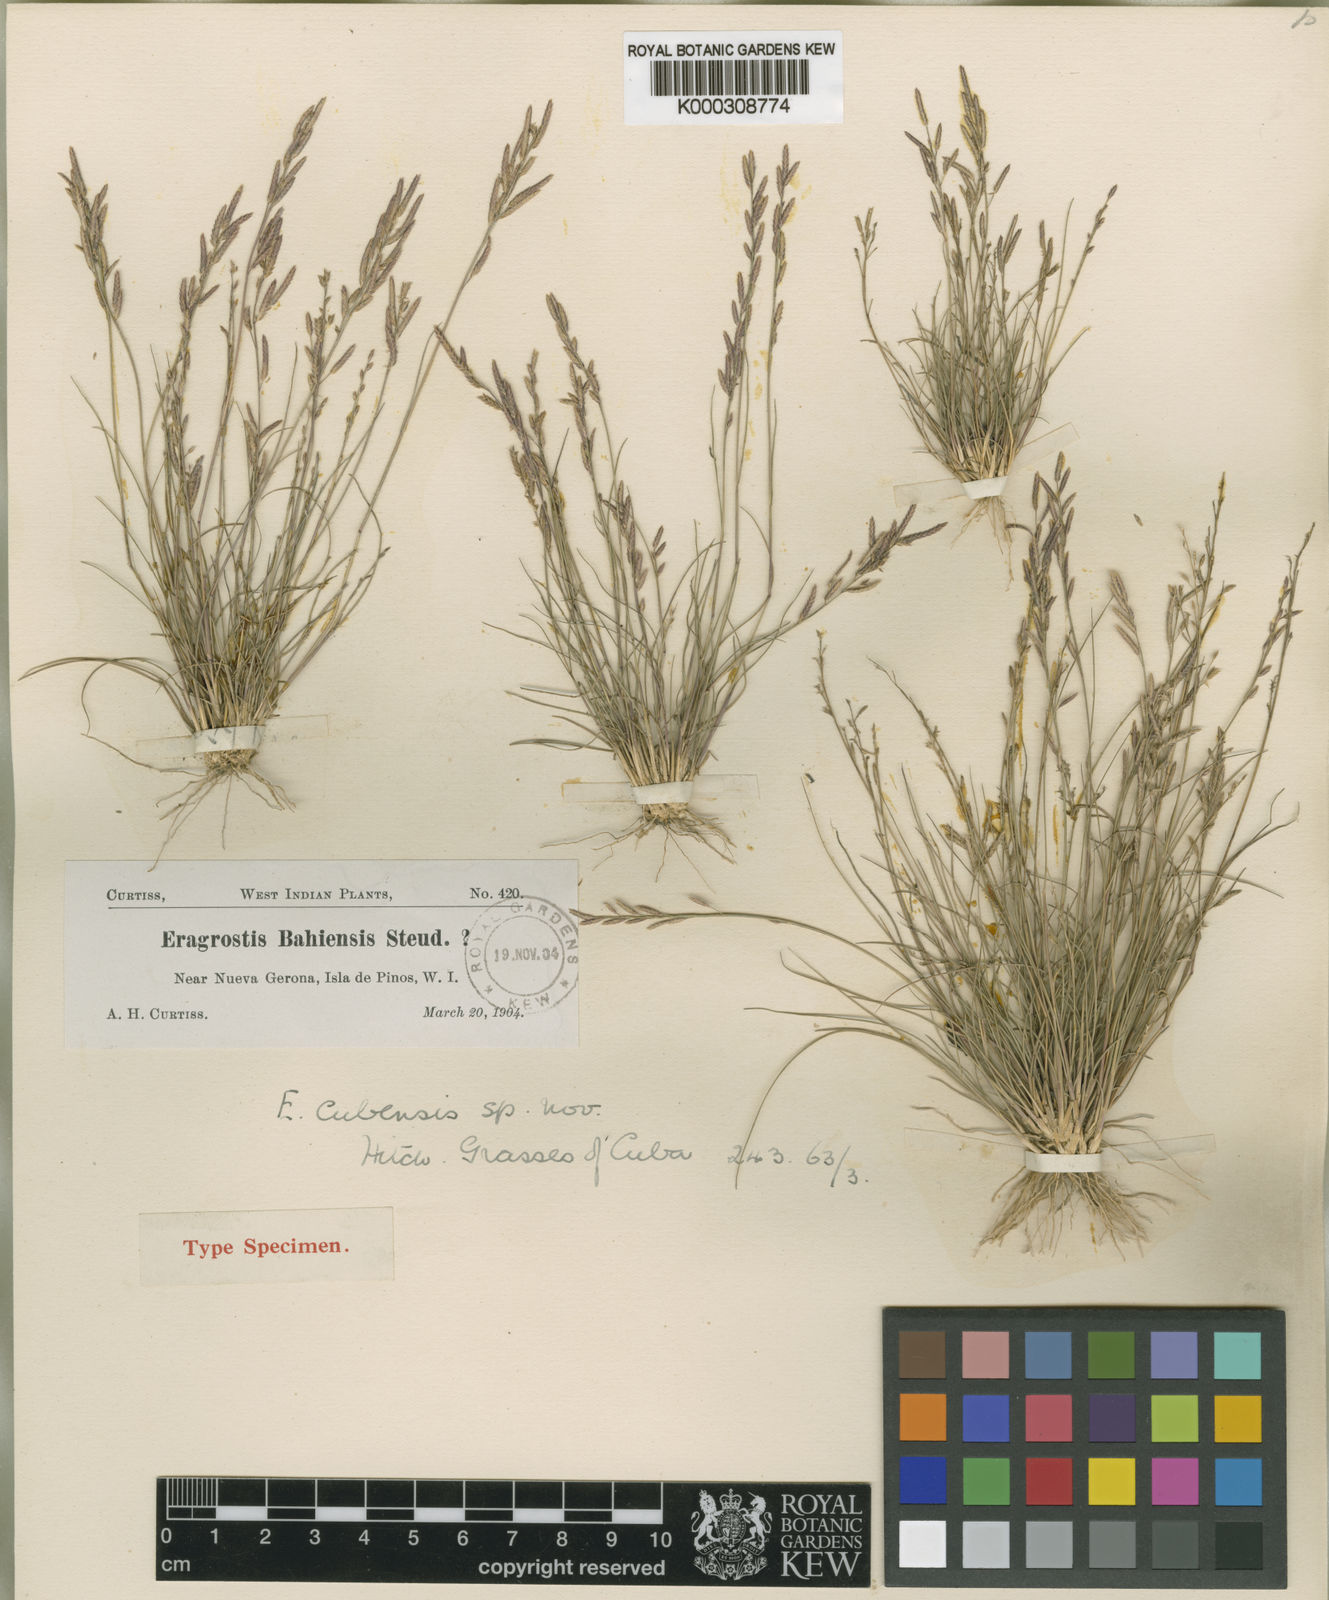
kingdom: Plantae
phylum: Tracheophyta
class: Liliopsida
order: Poales
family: Poaceae
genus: Eragrostis
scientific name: Eragrostis cubensis
